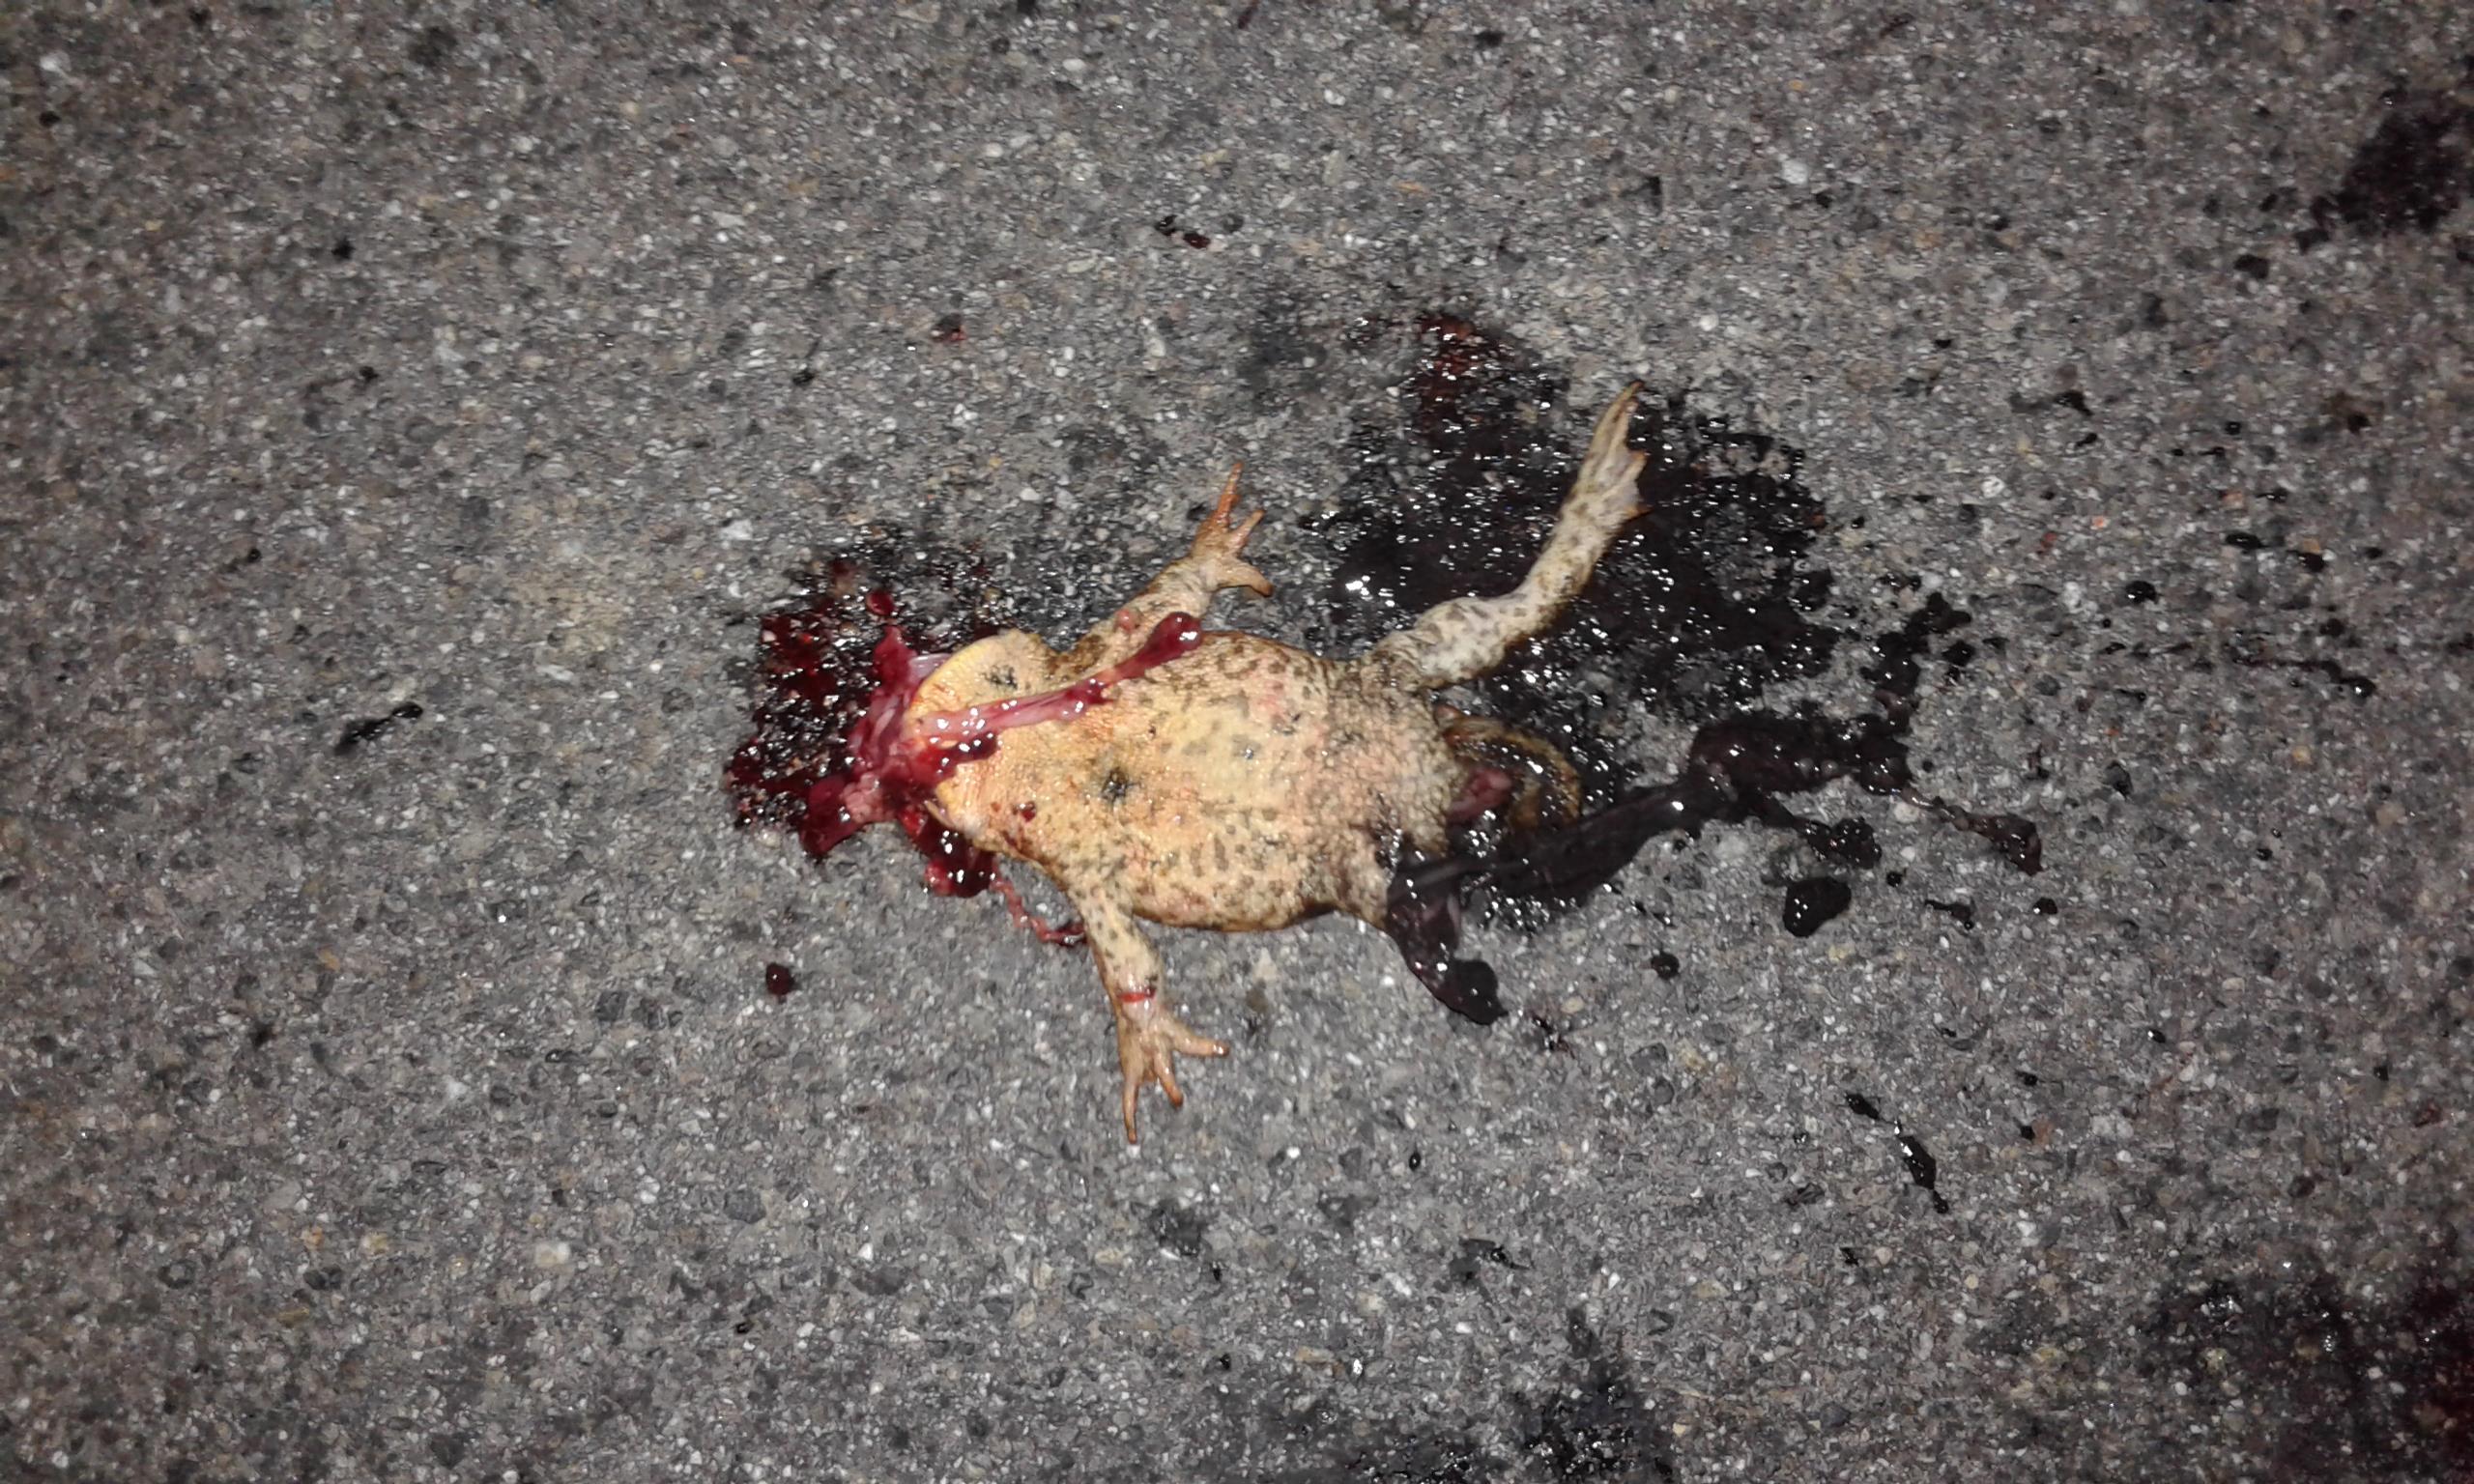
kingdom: Animalia
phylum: Chordata
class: Amphibia
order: Anura
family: Bufonidae
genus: Bufo
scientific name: Bufo bufo
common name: Common toad
